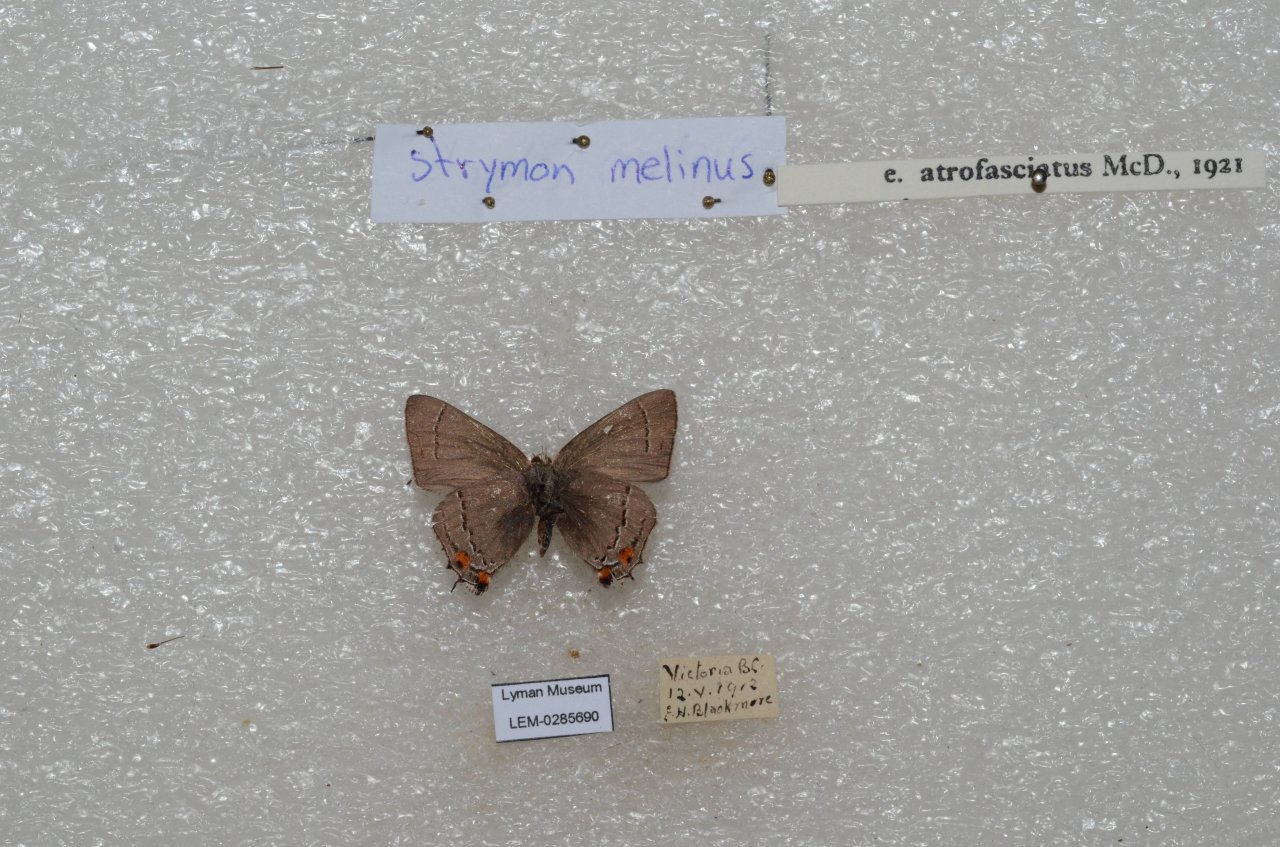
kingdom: Animalia
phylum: Arthropoda
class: Insecta
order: Lepidoptera
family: Lycaenidae
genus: Strymon
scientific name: Strymon melinus
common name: Gray Hairstreak
